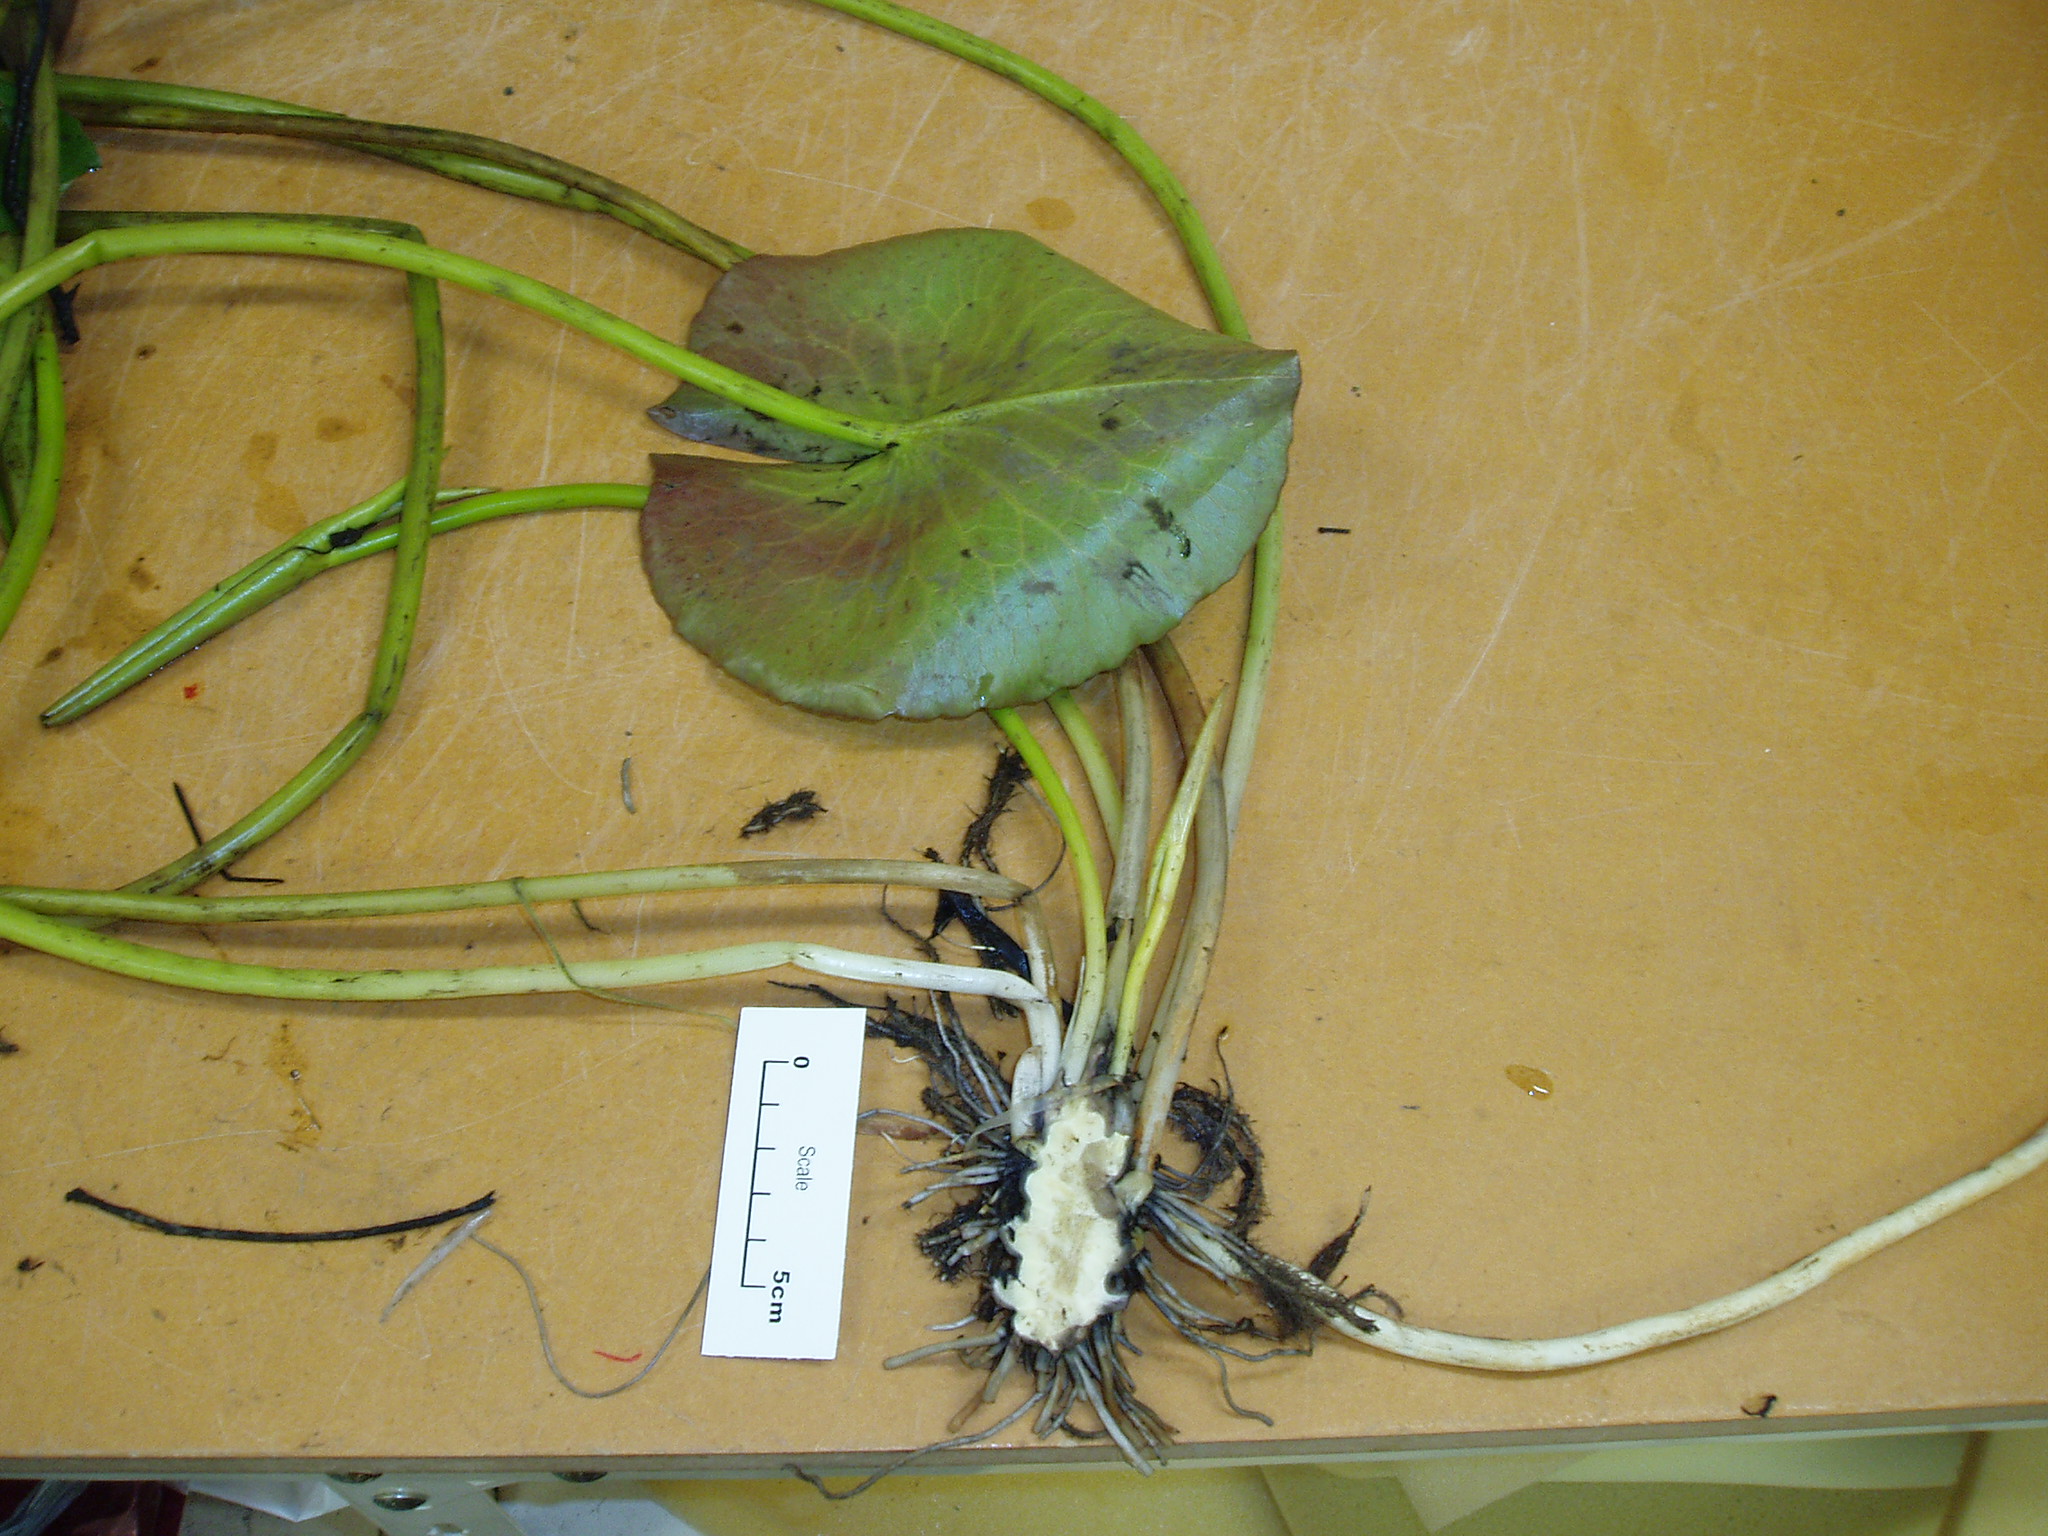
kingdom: Plantae
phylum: Tracheophyta
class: Magnoliopsida
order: Nymphaeales
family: Nymphaeaceae
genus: Nymphaea
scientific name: Nymphaea mexicana
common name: Banana water-lily
